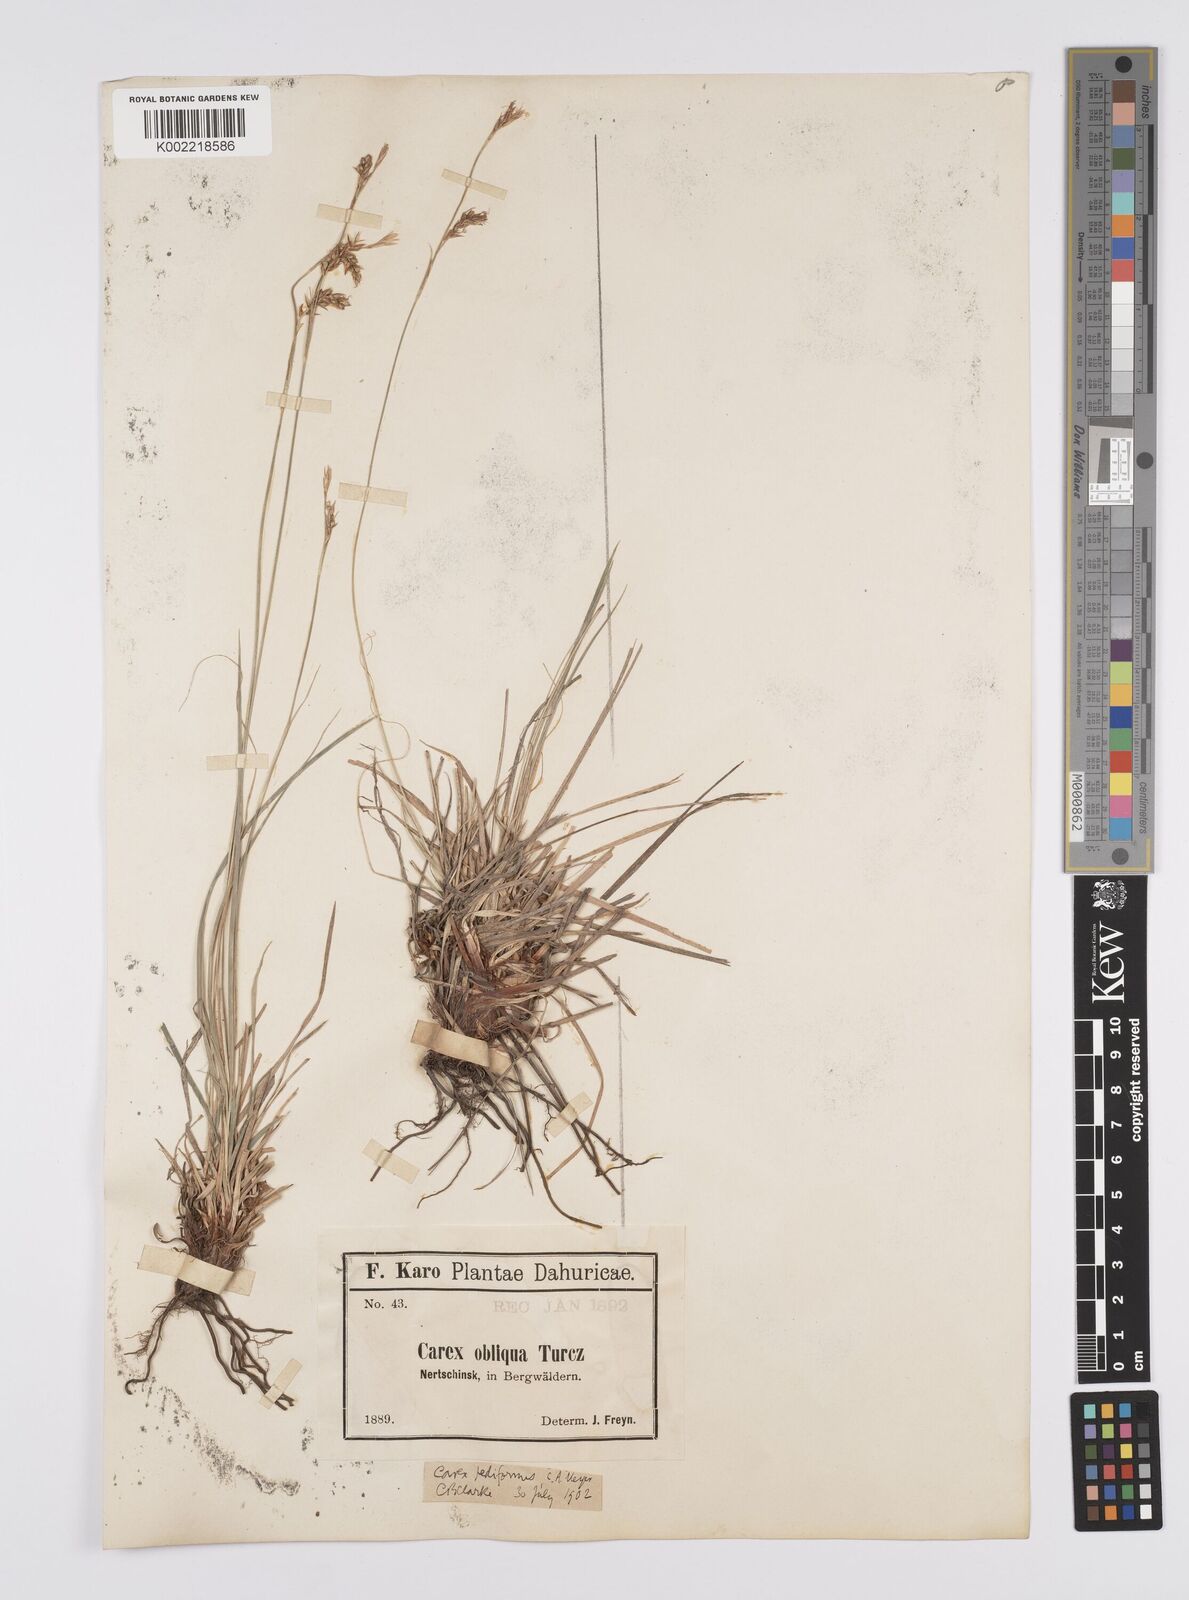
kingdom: Plantae
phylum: Tracheophyta
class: Liliopsida
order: Poales
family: Cyperaceae
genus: Carex
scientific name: Carex pediformis
